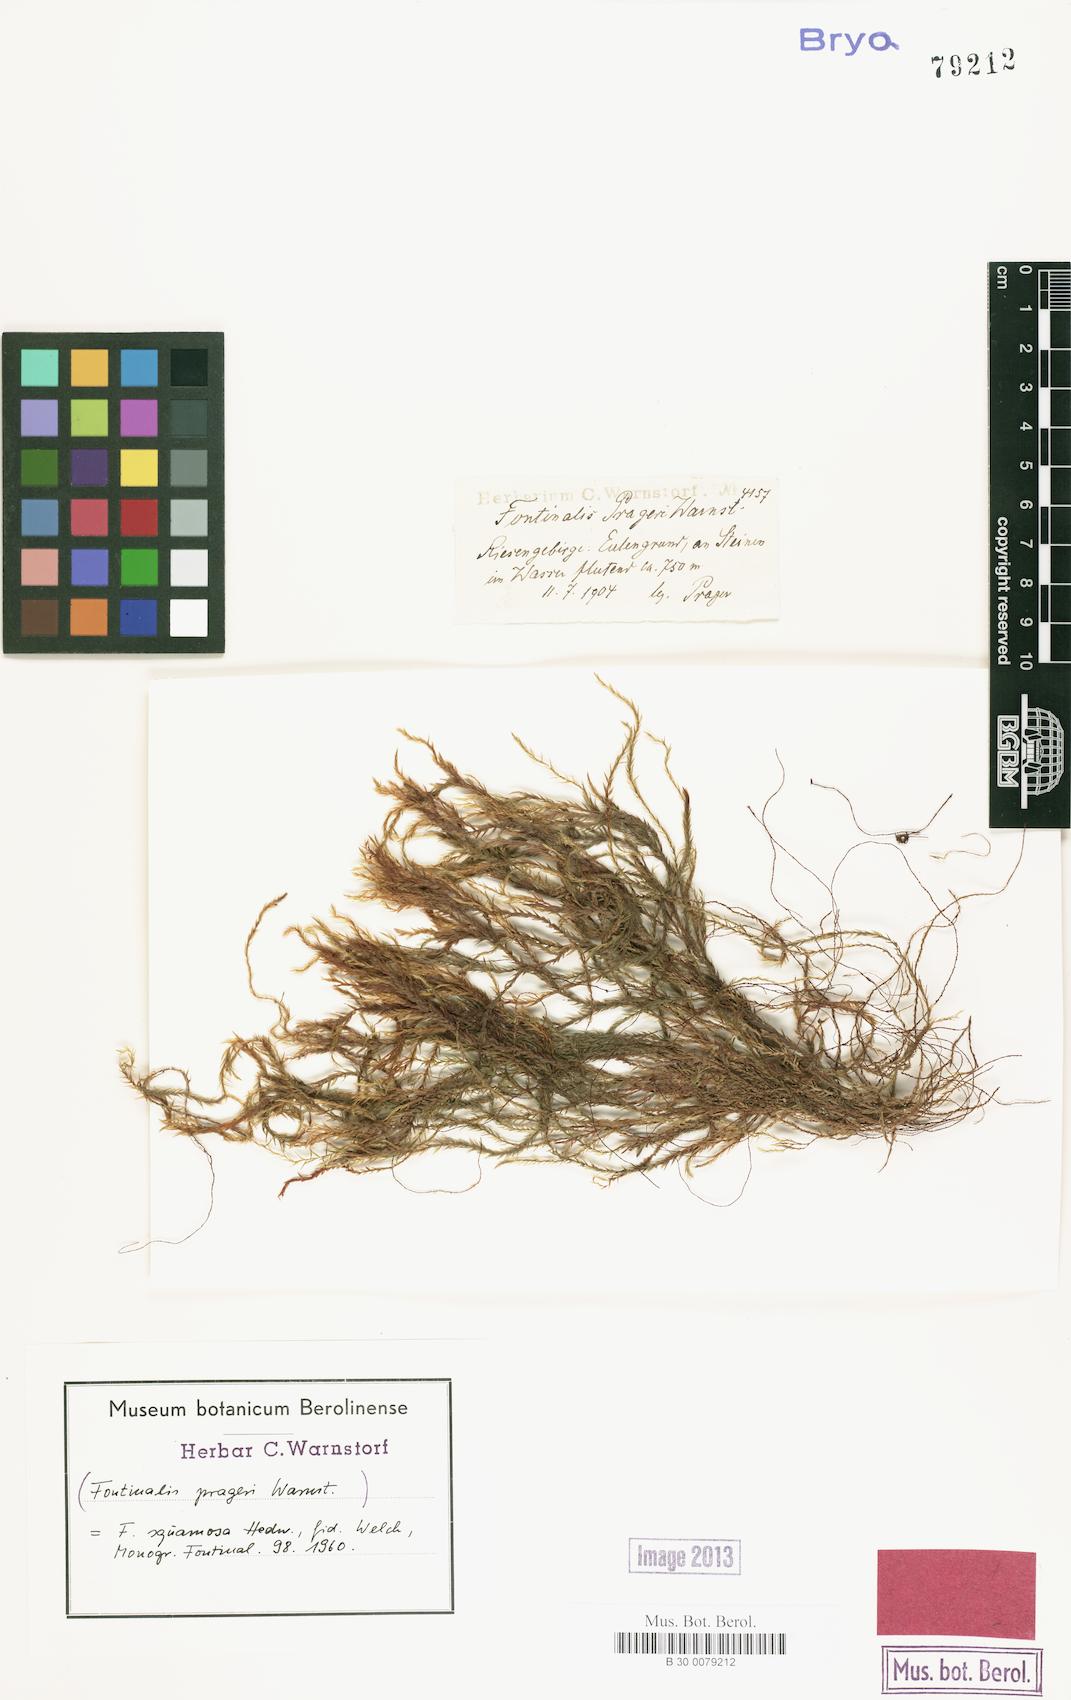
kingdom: Plantae
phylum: Bryophyta
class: Bryopsida
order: Hypnales
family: Fontinalaceae
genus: Fontinalis
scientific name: Fontinalis squamosa
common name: Alpine water-moss
